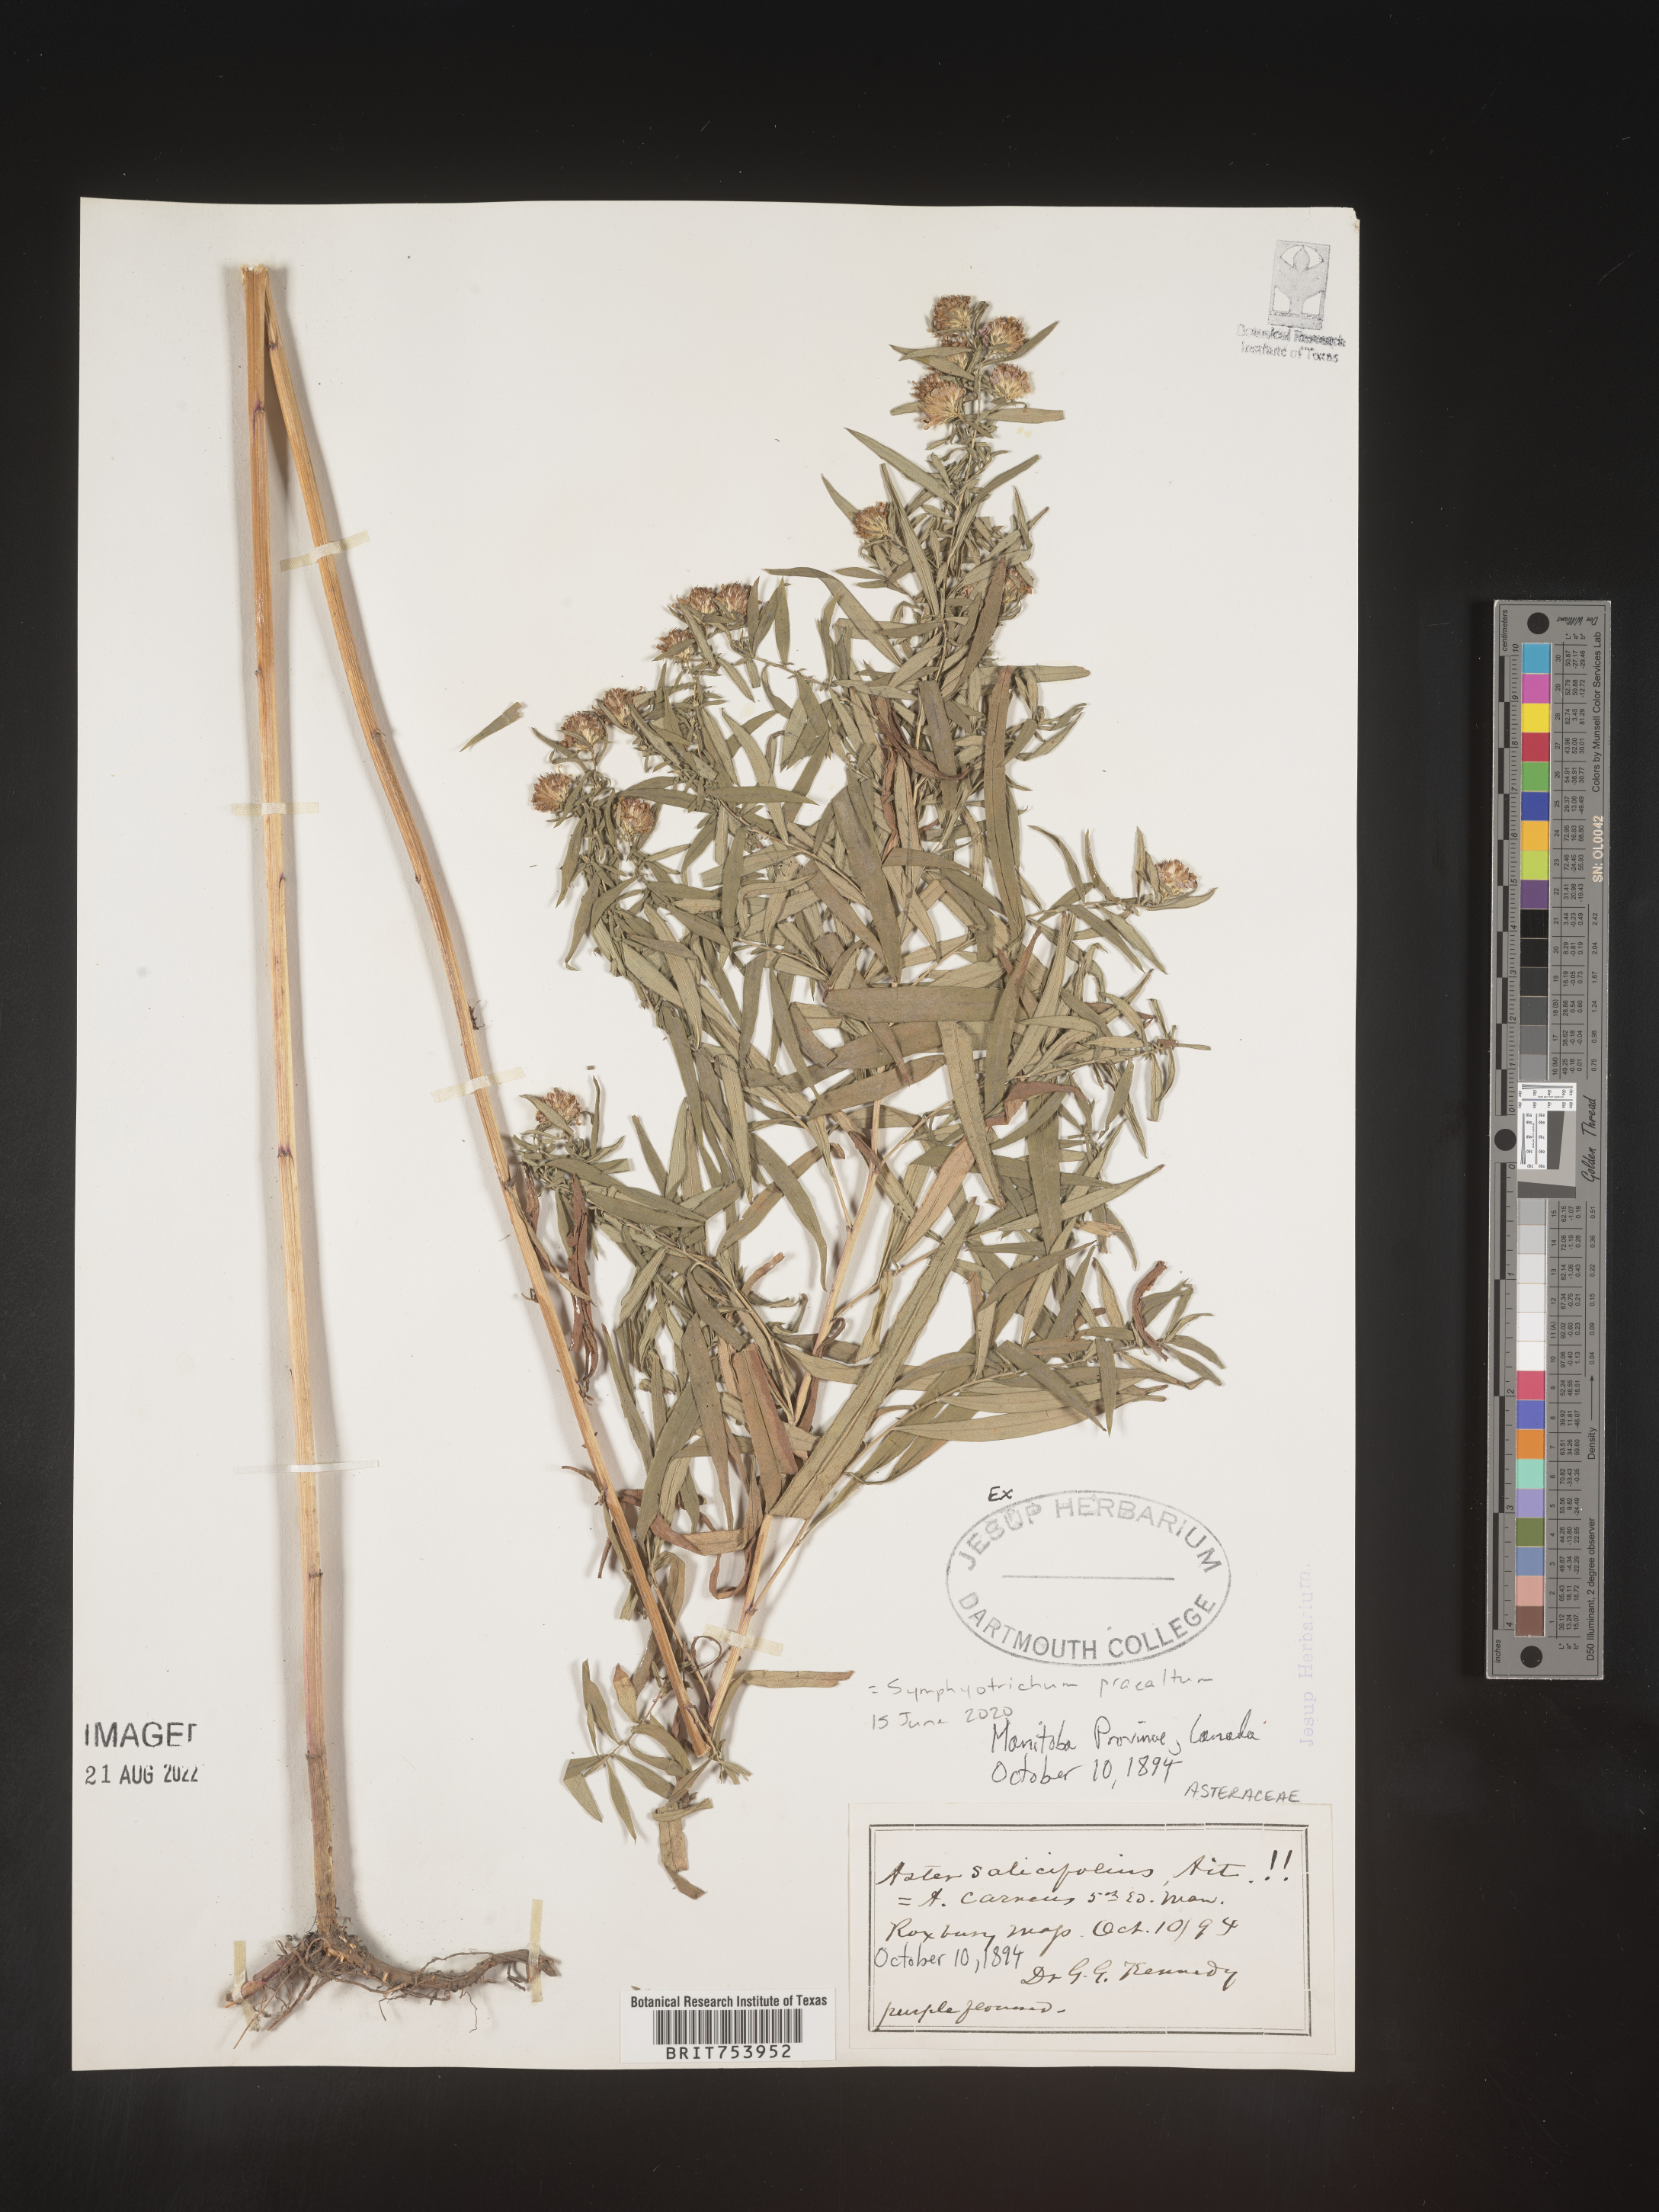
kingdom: Plantae
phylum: Tracheophyta
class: Magnoliopsida
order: Asterales
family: Asteraceae
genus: Symphyotrichum
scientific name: Symphyotrichum praealtum
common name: Willow aster
